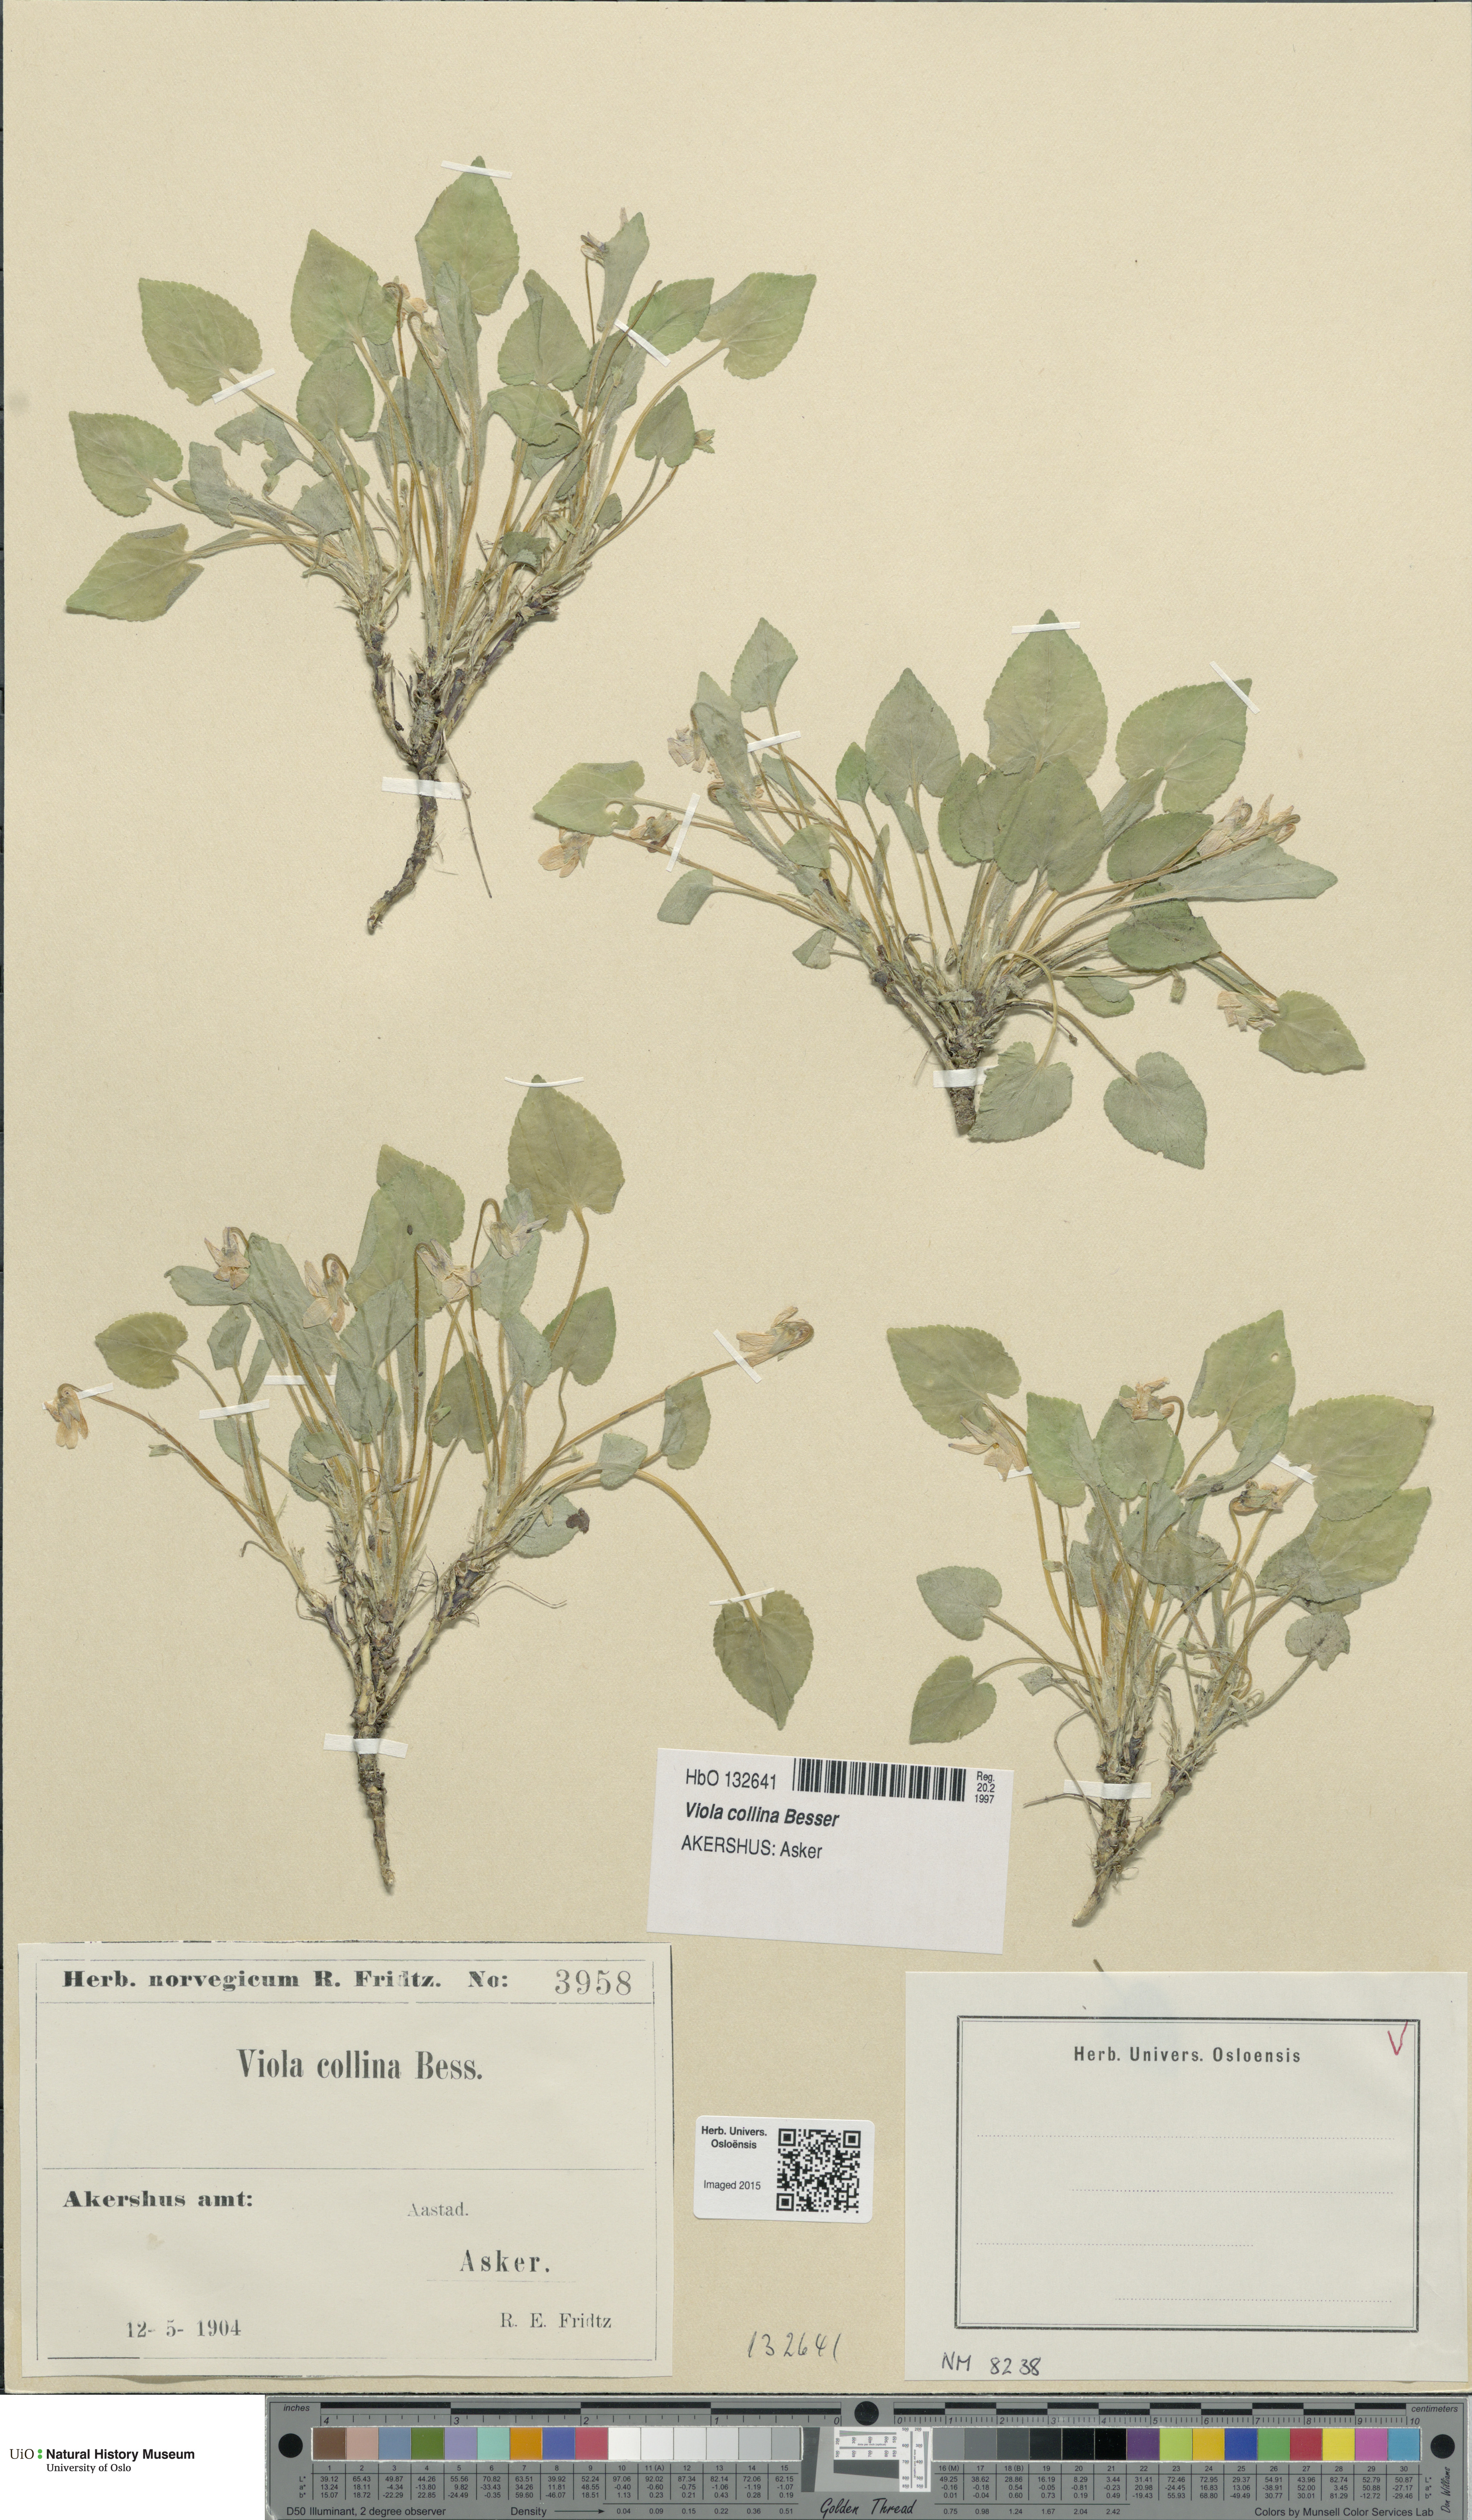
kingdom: Plantae
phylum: Tracheophyta
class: Magnoliopsida
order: Malpighiales
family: Violaceae
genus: Viola
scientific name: Viola collina
